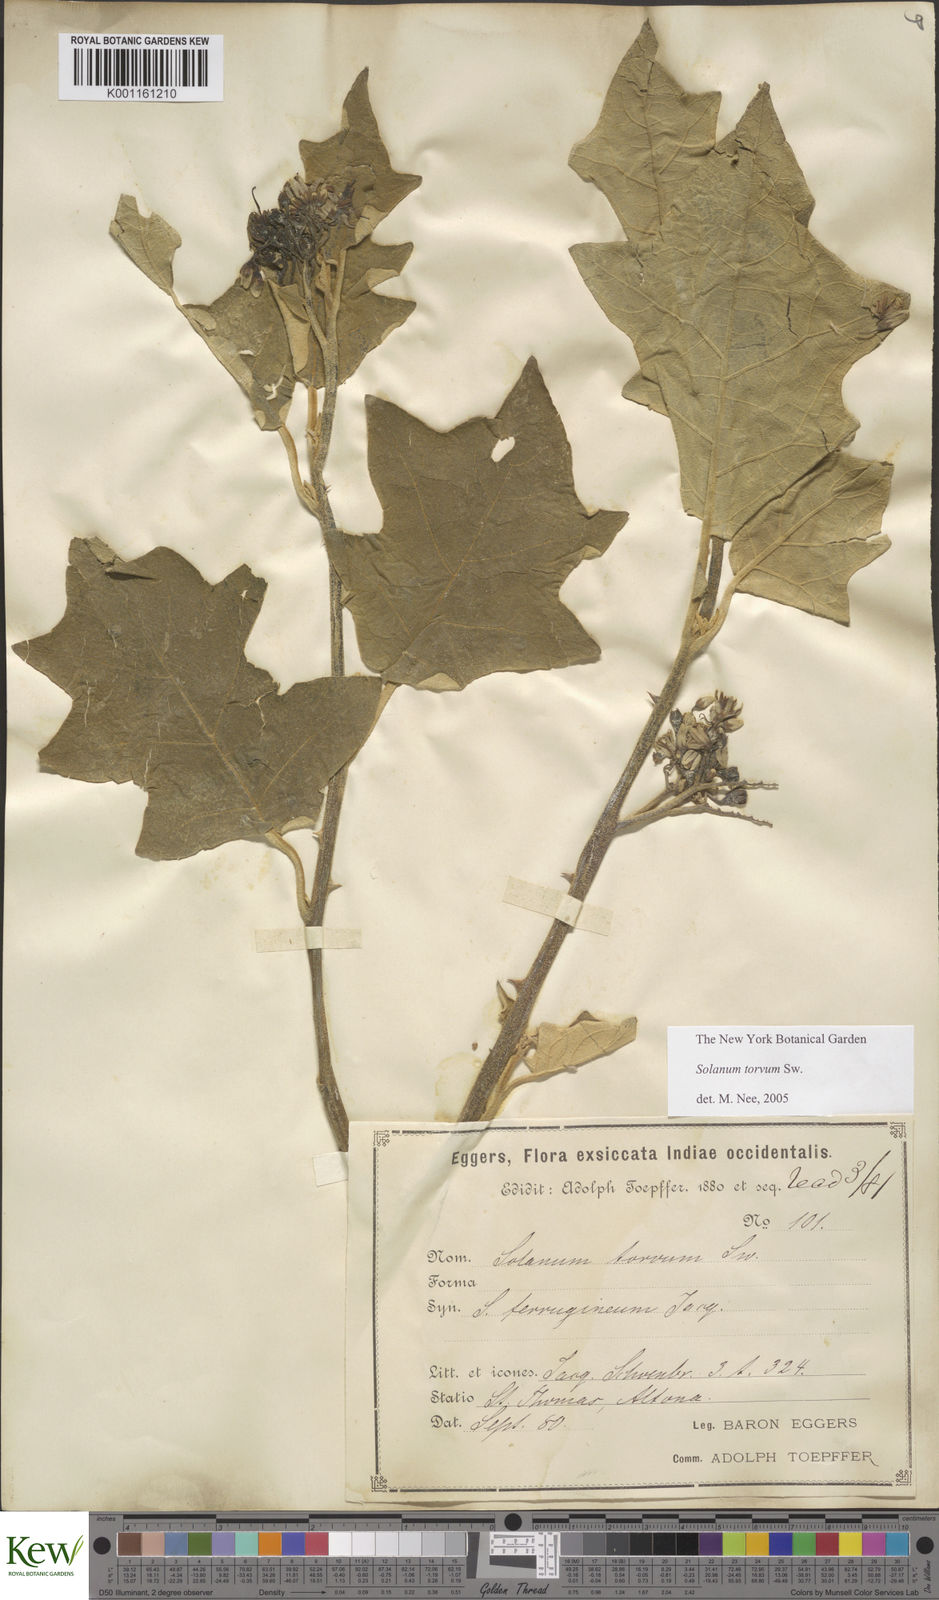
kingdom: Plantae
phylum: Tracheophyta
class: Magnoliopsida
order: Solanales
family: Solanaceae
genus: Solanum
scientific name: Solanum torvum
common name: Turkey berry
